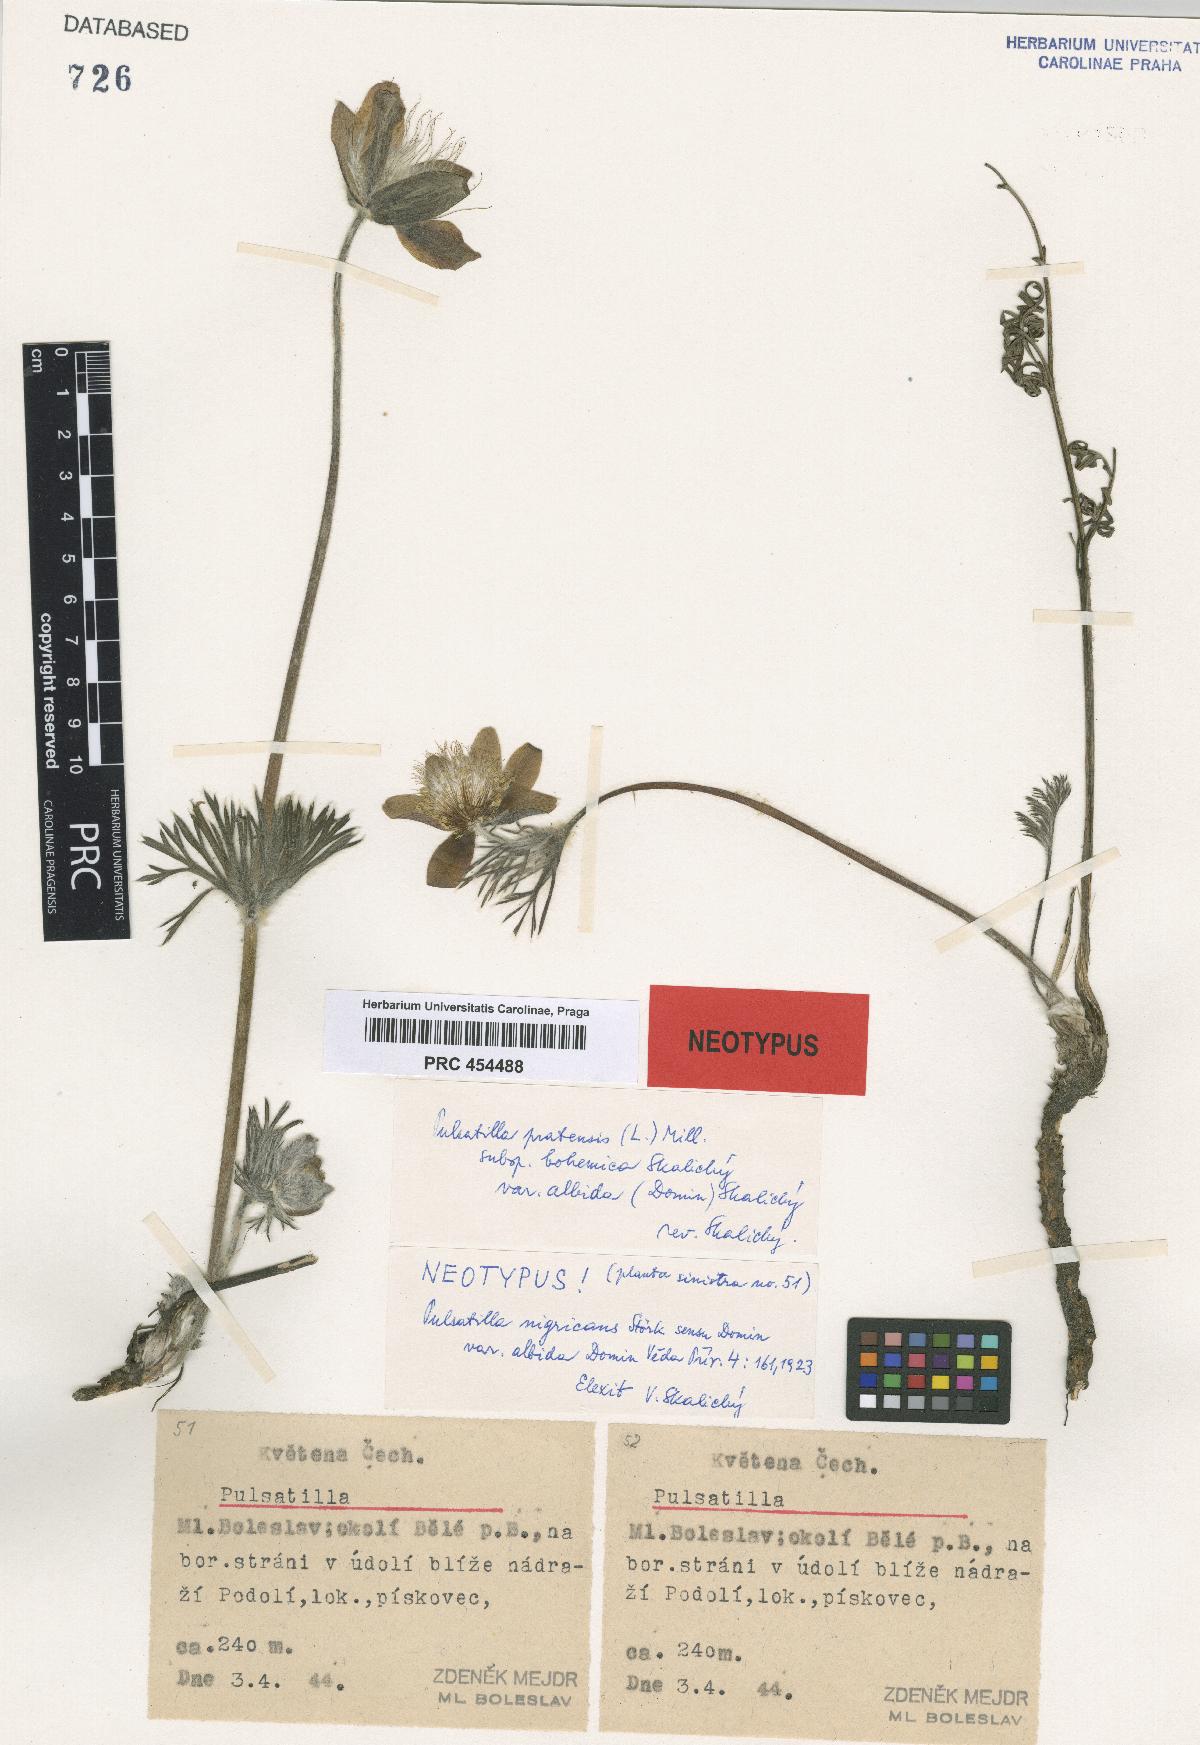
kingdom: Plantae
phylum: Tracheophyta
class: Magnoliopsida
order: Ranunculales
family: Ranunculaceae
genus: Pulsatilla
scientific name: Pulsatilla pratensis
